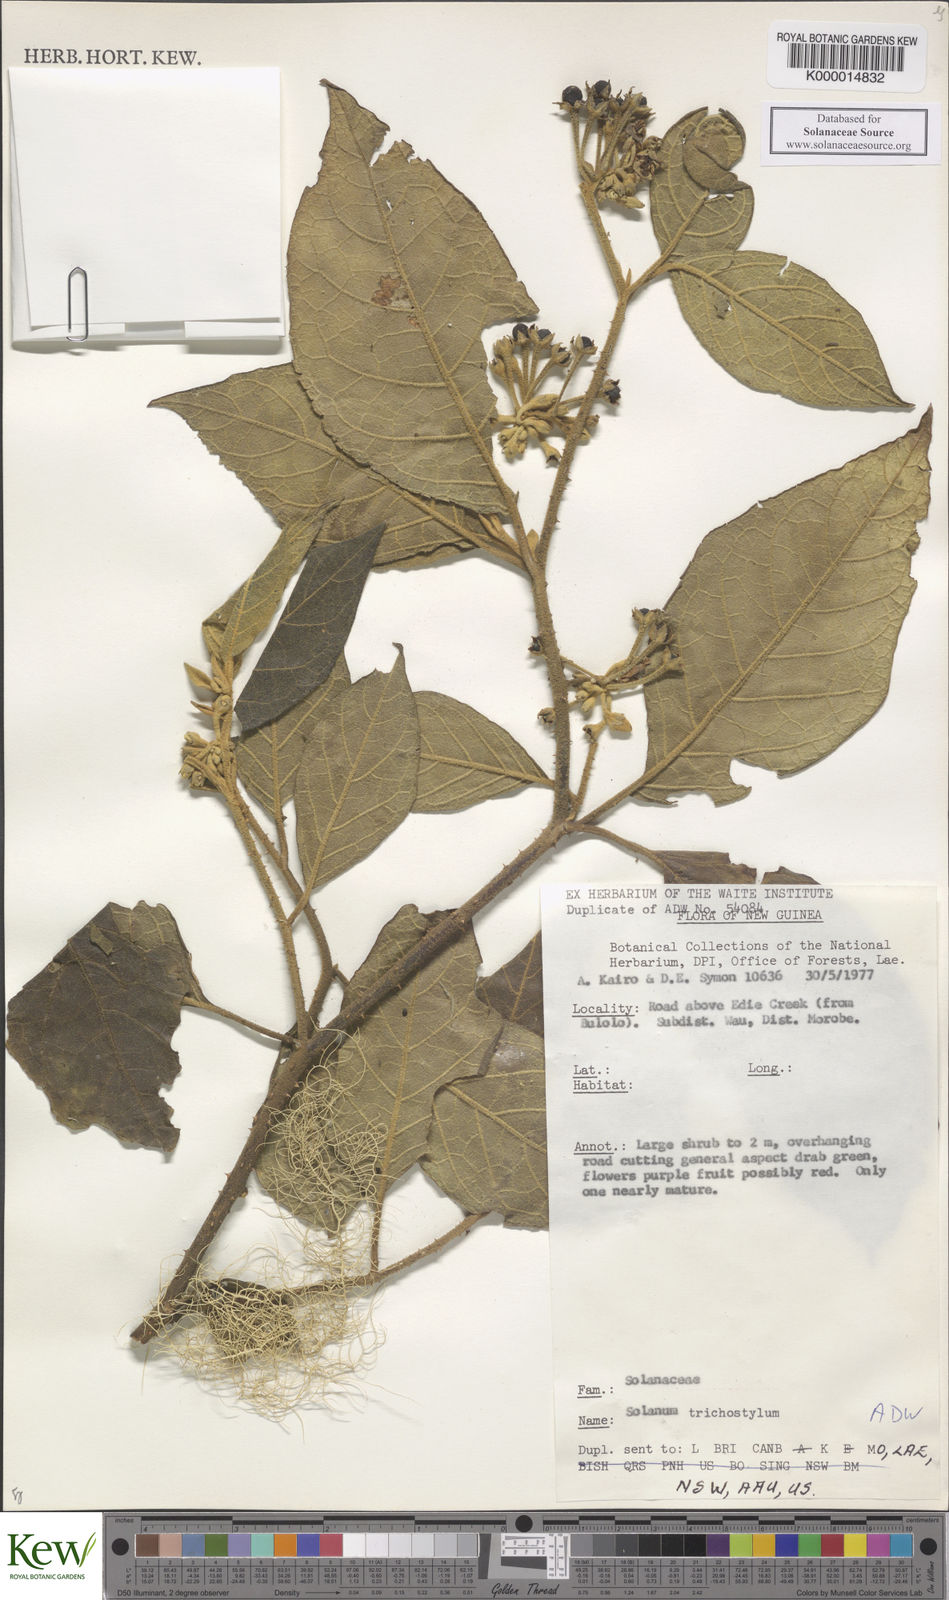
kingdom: Plantae
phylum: Tracheophyta
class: Magnoliopsida
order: Solanales
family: Solanaceae
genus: Solanum
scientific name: Solanum trichostylum
